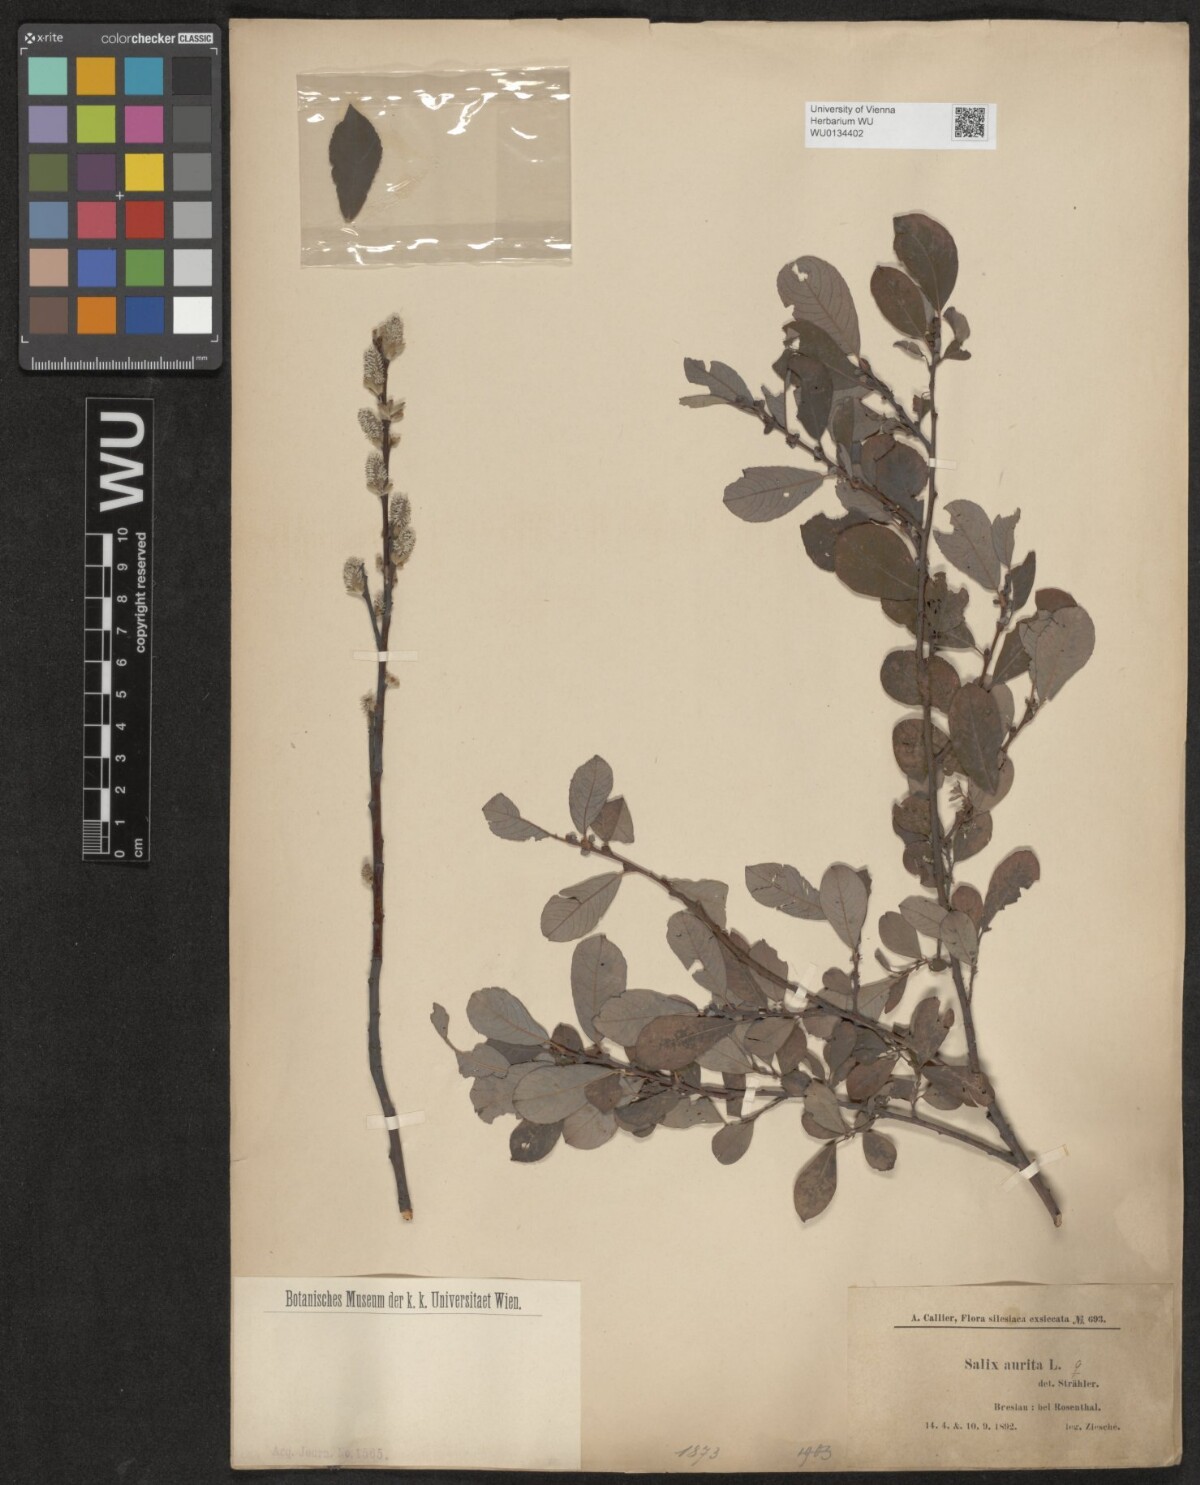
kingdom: Plantae
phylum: Tracheophyta
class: Magnoliopsida
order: Malpighiales
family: Salicaceae
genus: Salix
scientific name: Salix aurita
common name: Eared willow
